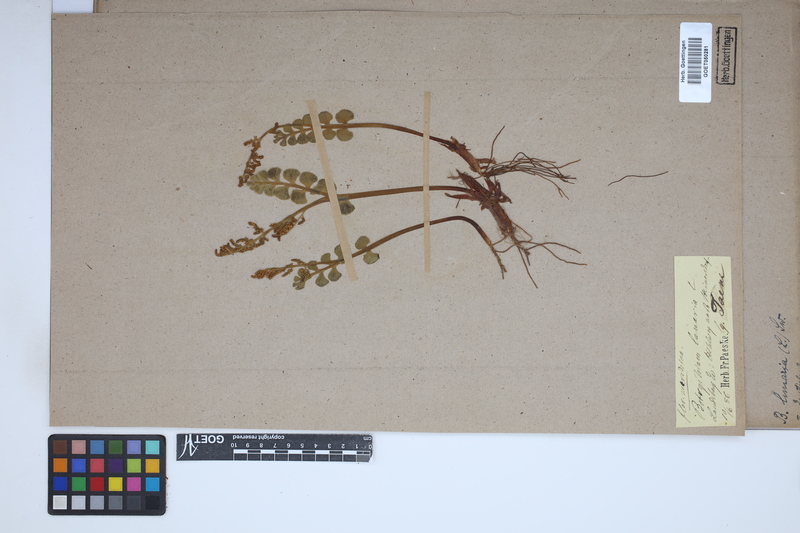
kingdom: Plantae
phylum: Tracheophyta
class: Polypodiopsida
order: Ophioglossales
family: Ophioglossaceae
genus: Botrychium
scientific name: Botrychium lunaria
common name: Moonwort
